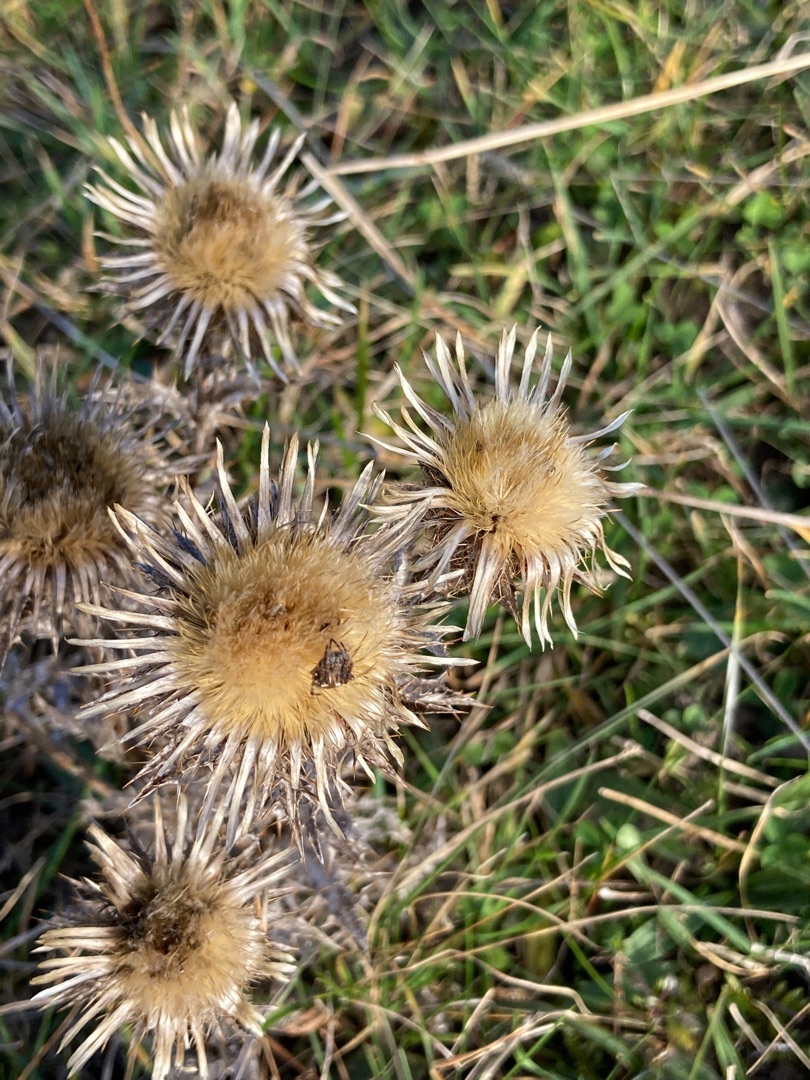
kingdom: Plantae
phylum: Tracheophyta
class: Magnoliopsida
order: Asterales
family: Asteraceae
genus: Carlina
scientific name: Carlina vulgaris
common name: Bakketidsel
